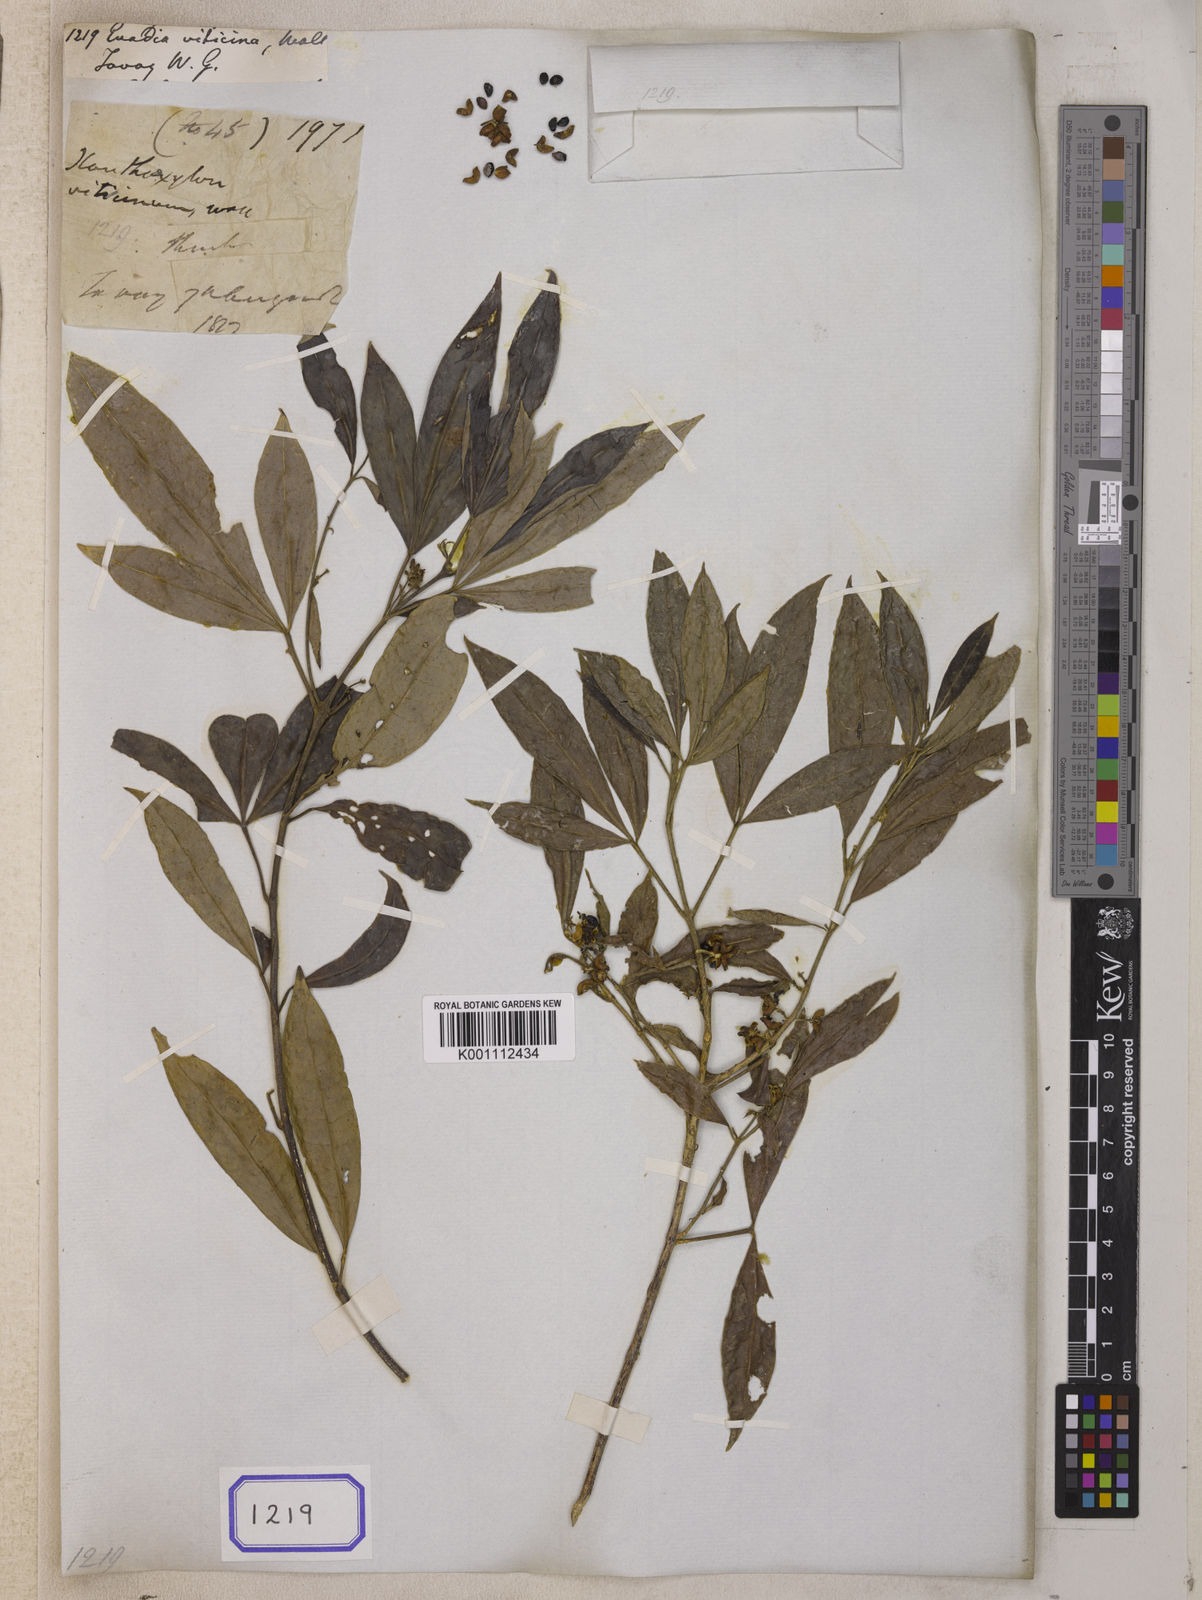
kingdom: Plantae
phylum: Tracheophyta
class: Magnoliopsida
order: Sapindales
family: Rutaceae
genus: Euodia
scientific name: Euodia
